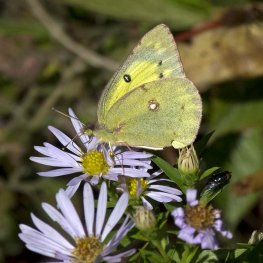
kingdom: Animalia
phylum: Arthropoda
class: Insecta
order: Lepidoptera
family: Pieridae
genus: Colias
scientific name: Colias philodice
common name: Clouded Sulphur
